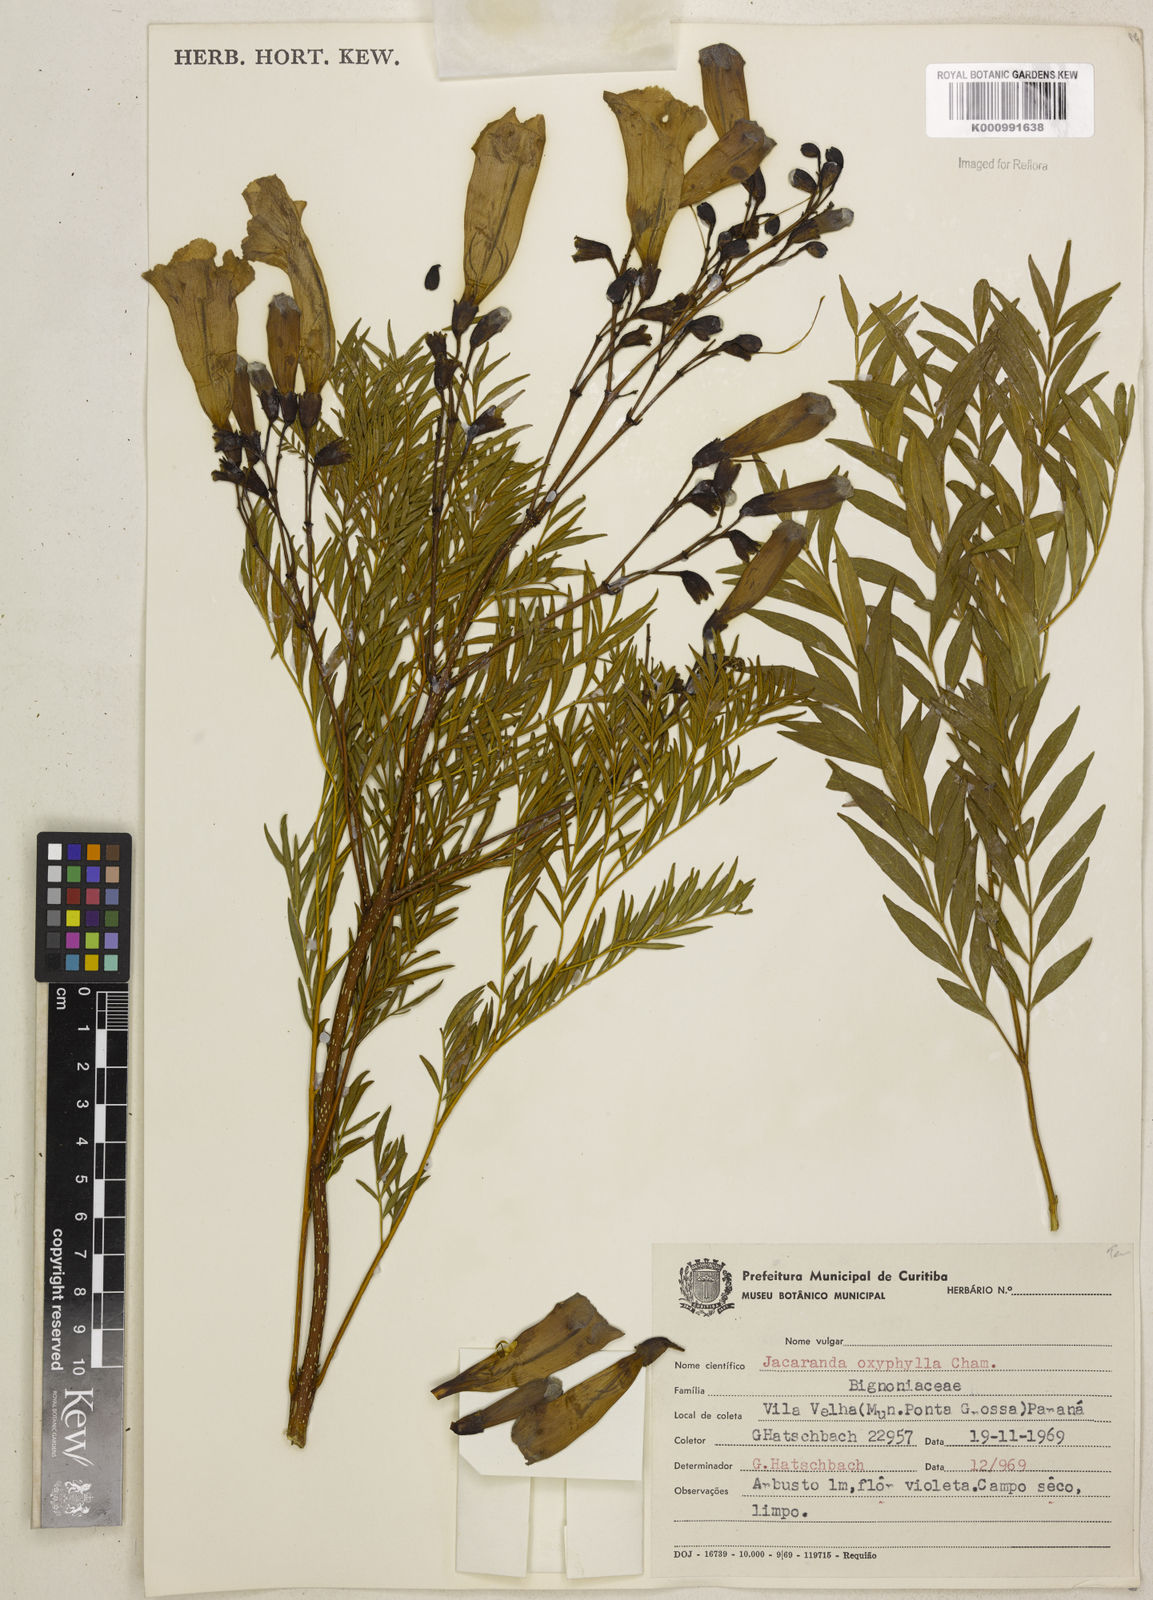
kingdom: Plantae
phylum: Tracheophyta
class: Magnoliopsida
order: Lamiales
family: Bignoniaceae
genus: Jacaranda
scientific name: Jacaranda caroba
